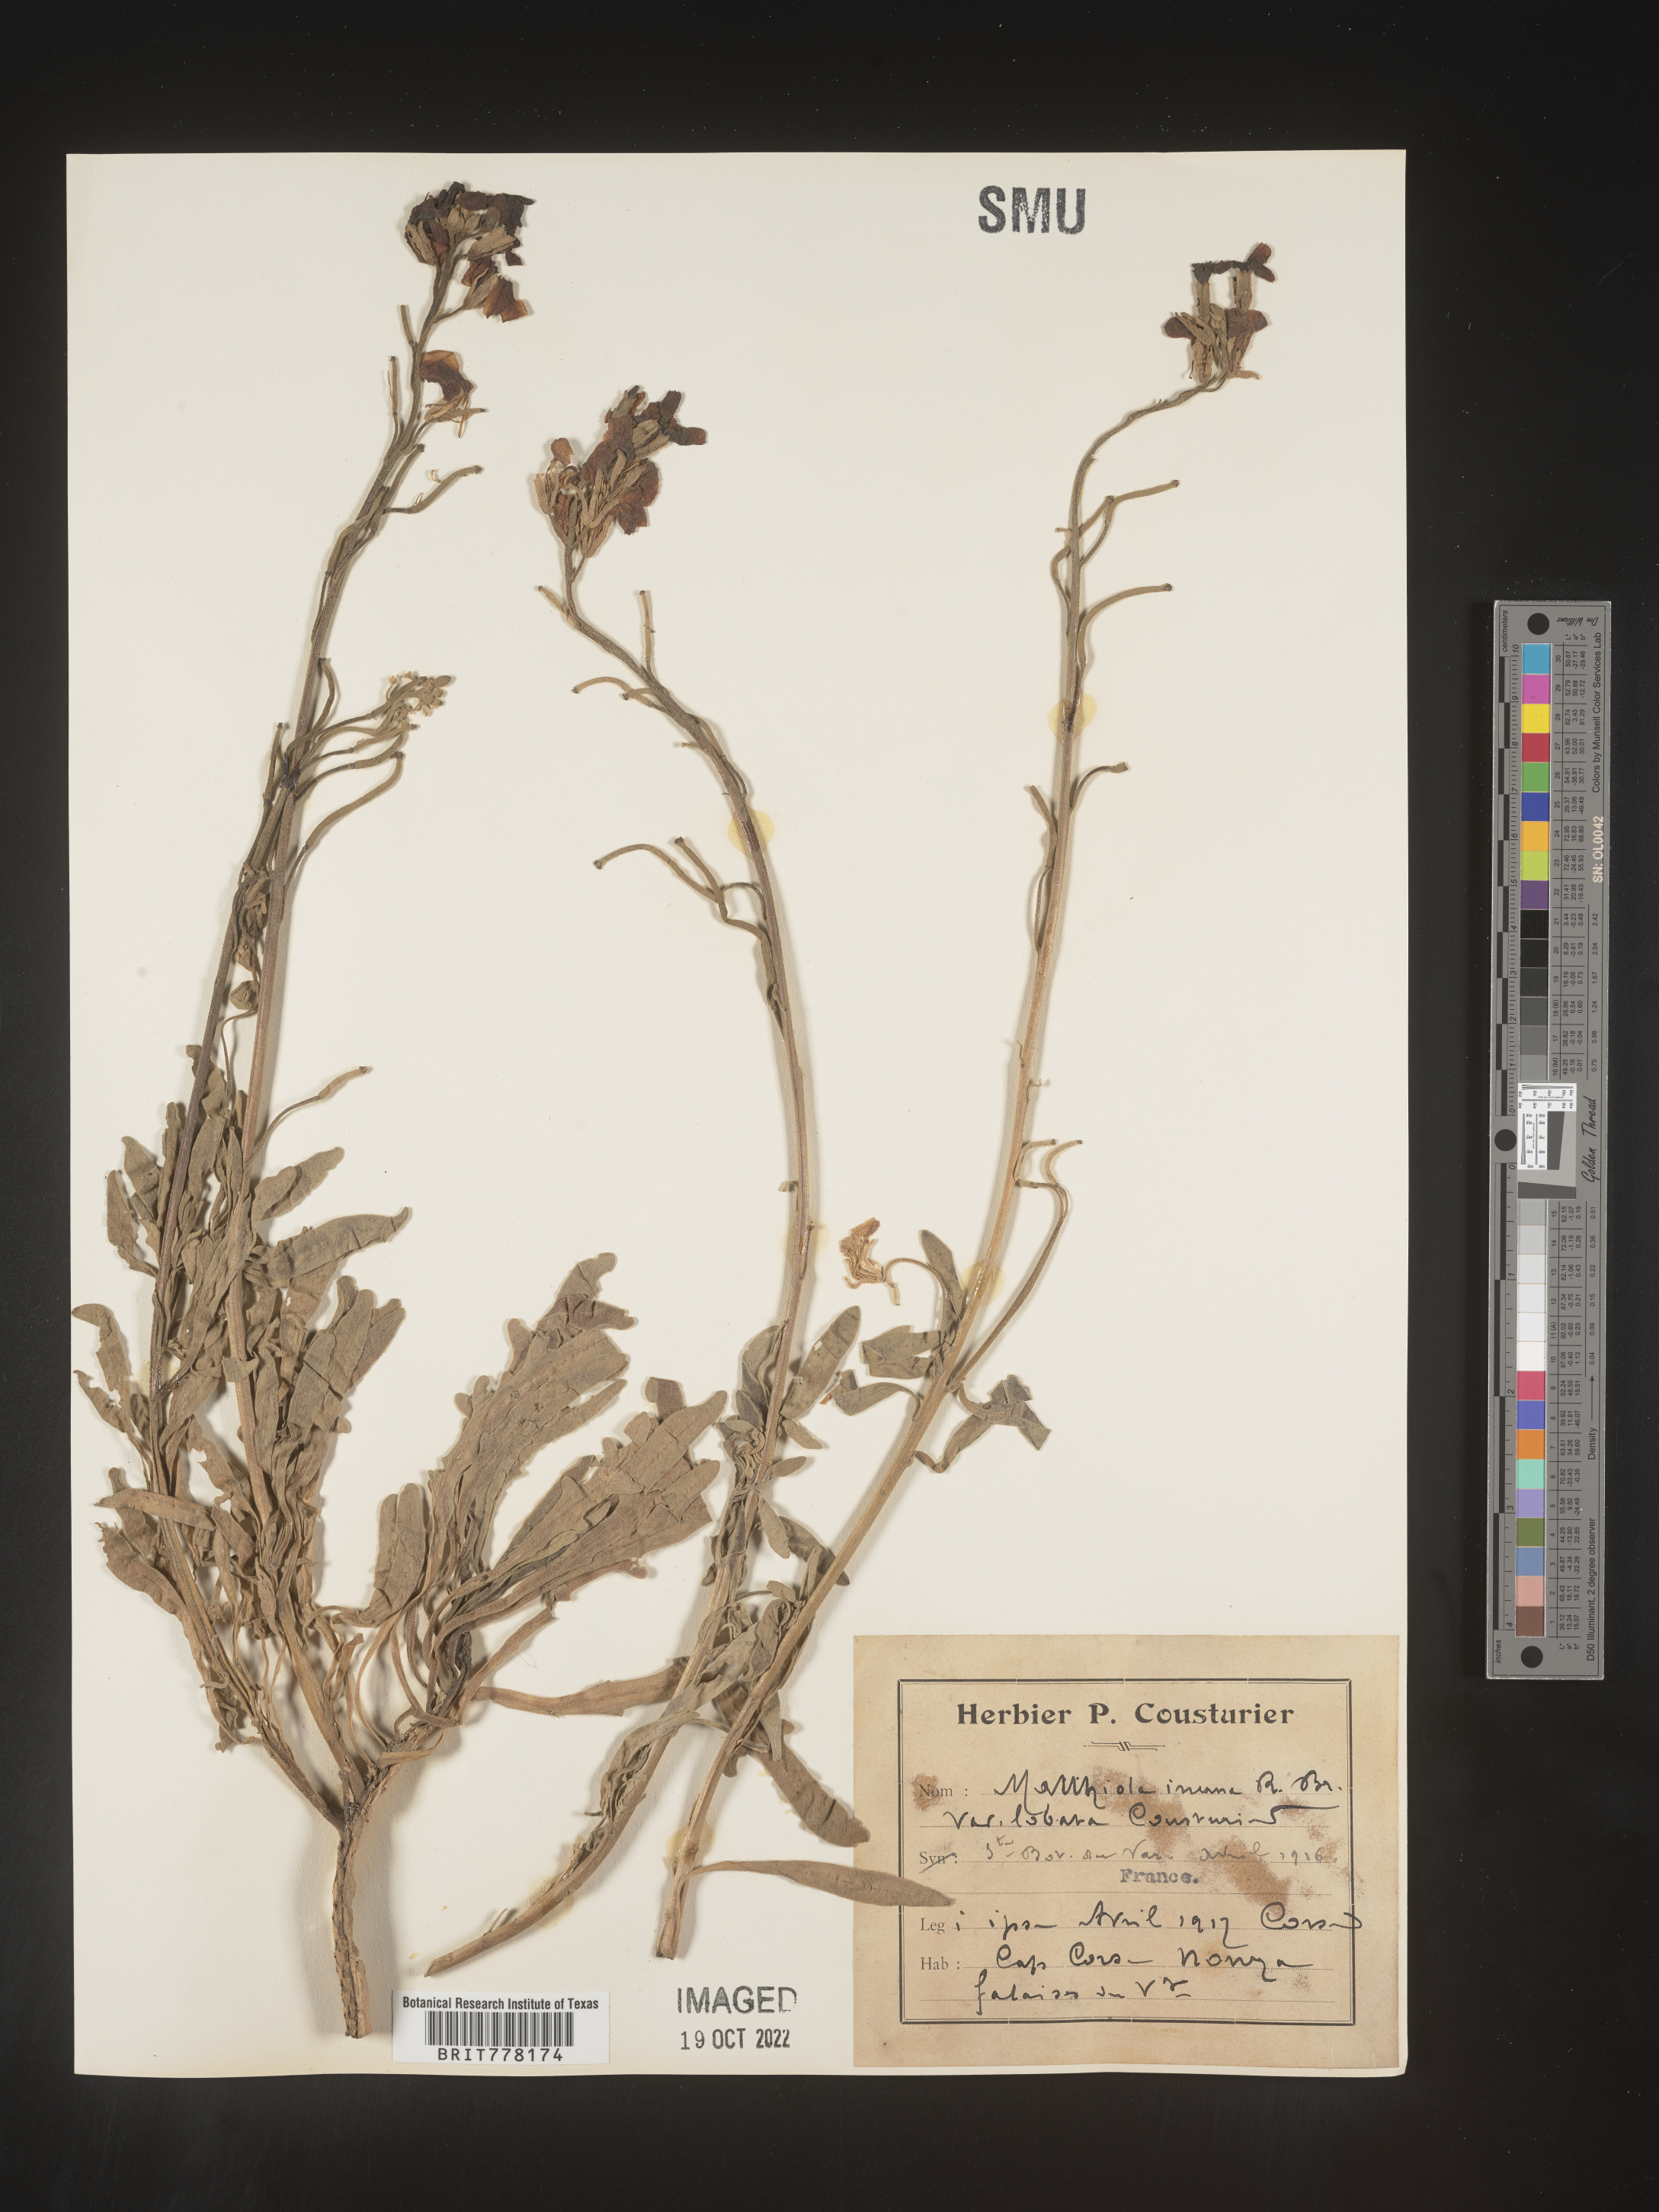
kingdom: Plantae
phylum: Tracheophyta
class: Magnoliopsida
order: Brassicales
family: Brassicaceae
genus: Matthiola
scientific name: Matthiola
